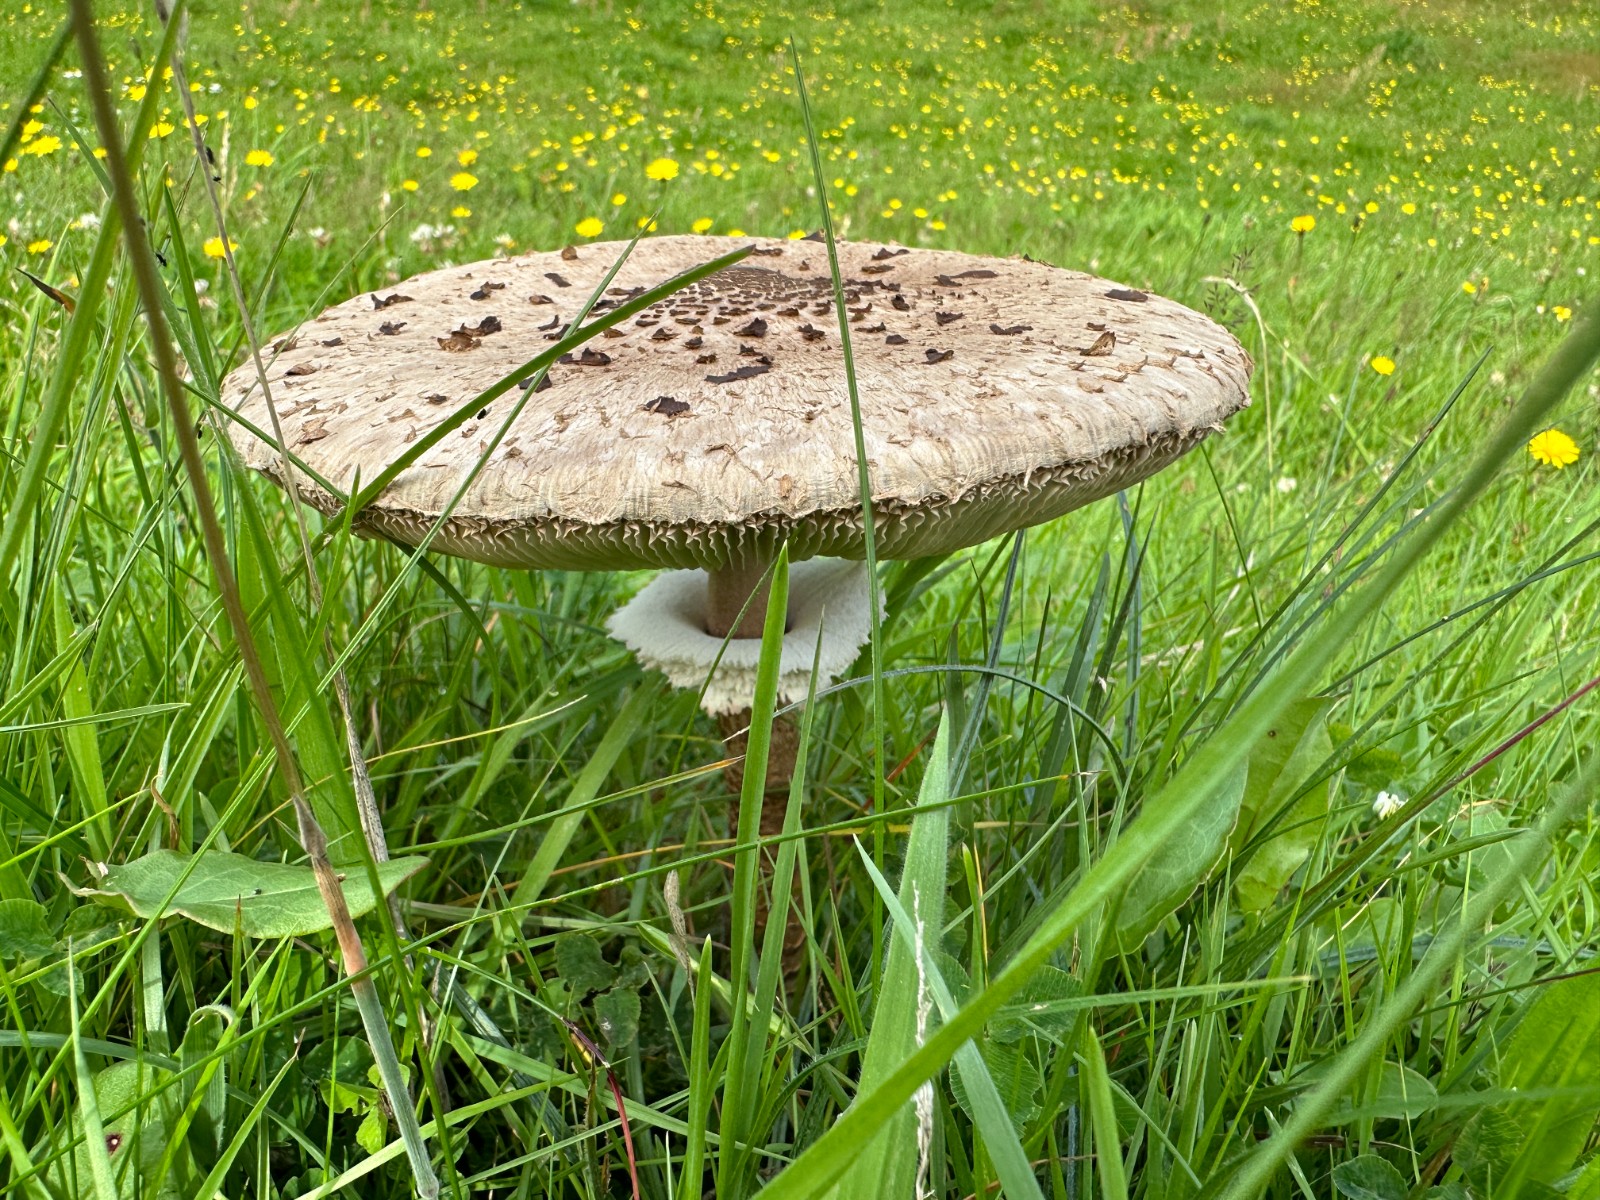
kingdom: Fungi
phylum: Basidiomycota
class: Agaricomycetes
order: Agaricales
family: Agaricaceae
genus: Macrolepiota
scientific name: Macrolepiota procera
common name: stor kæmpeparasolhat
